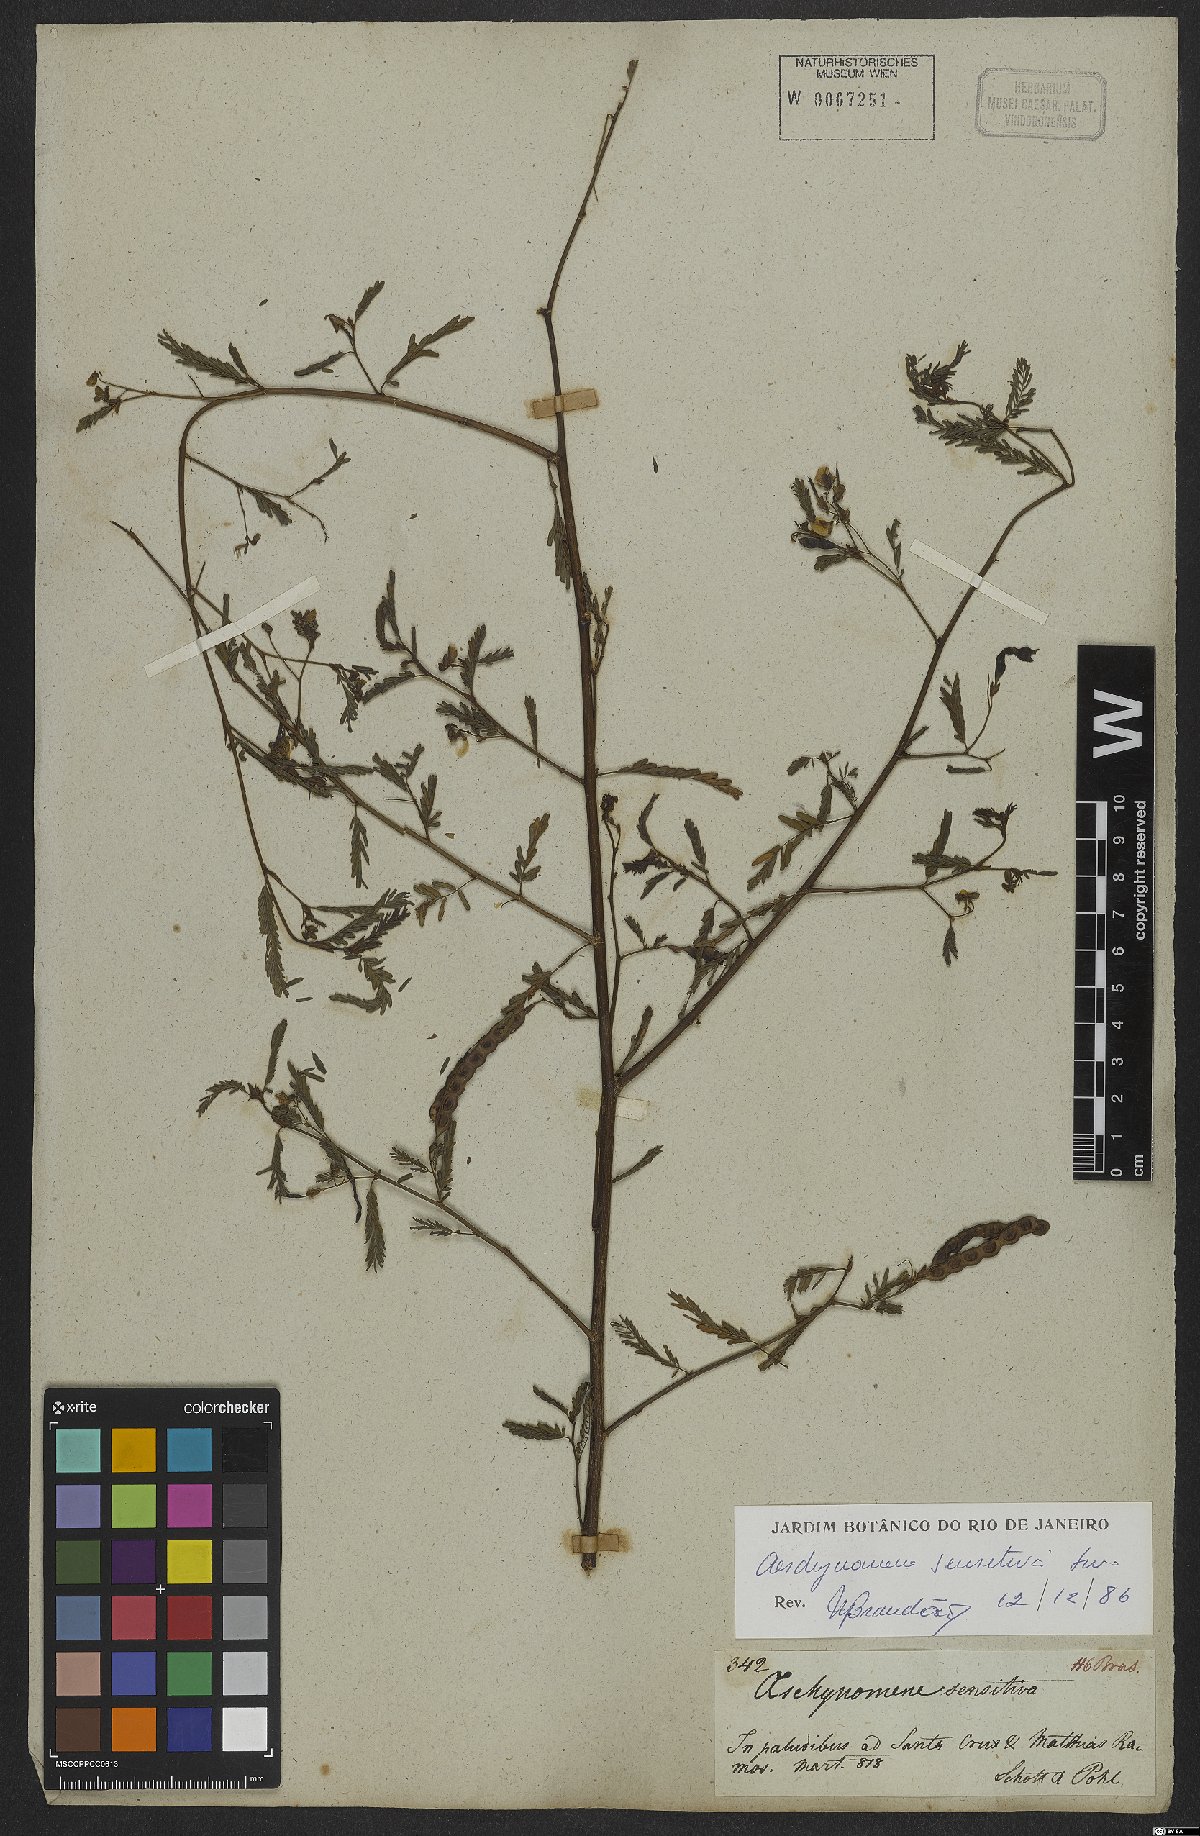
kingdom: Plantae
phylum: Tracheophyta
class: Magnoliopsida
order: Fabales
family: Fabaceae
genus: Aeschynomene
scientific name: Aeschynomene sensitiva
